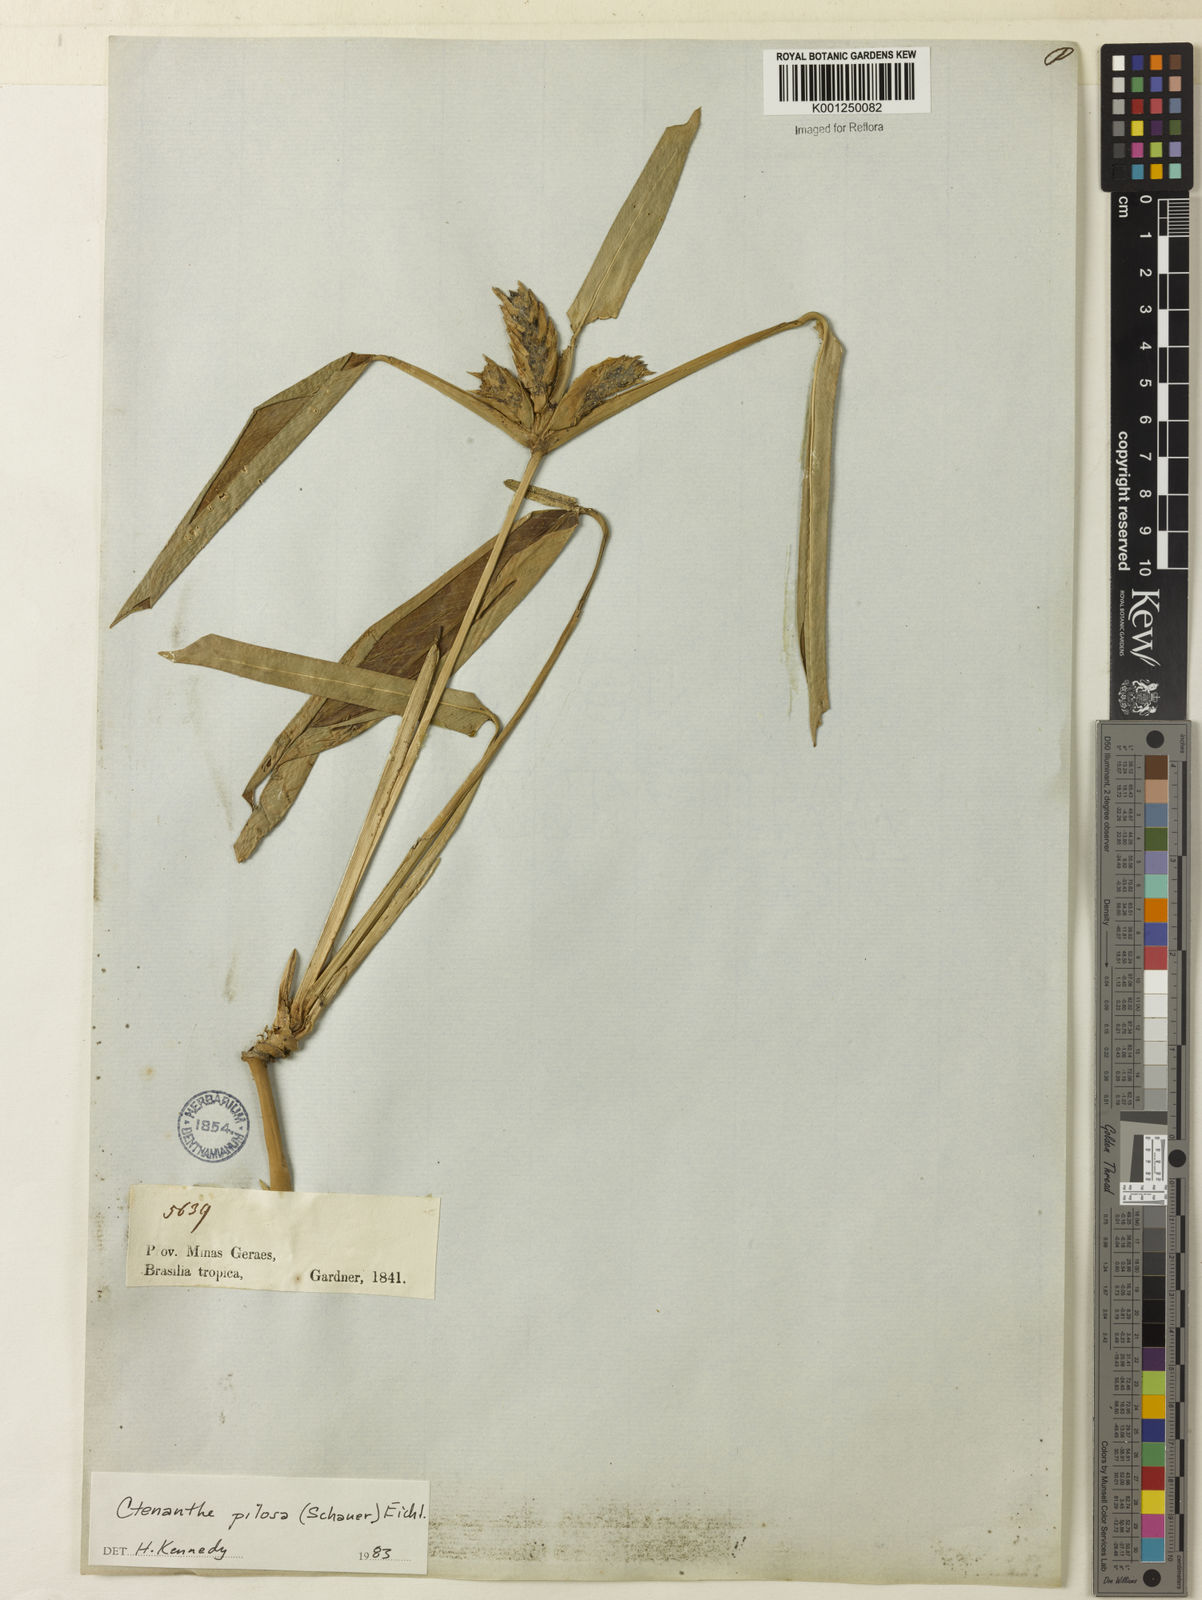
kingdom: Plantae
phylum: Tracheophyta
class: Liliopsida
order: Zingiberales
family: Marantaceae
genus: Ctenanthe
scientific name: Ctenanthe marantifolia
